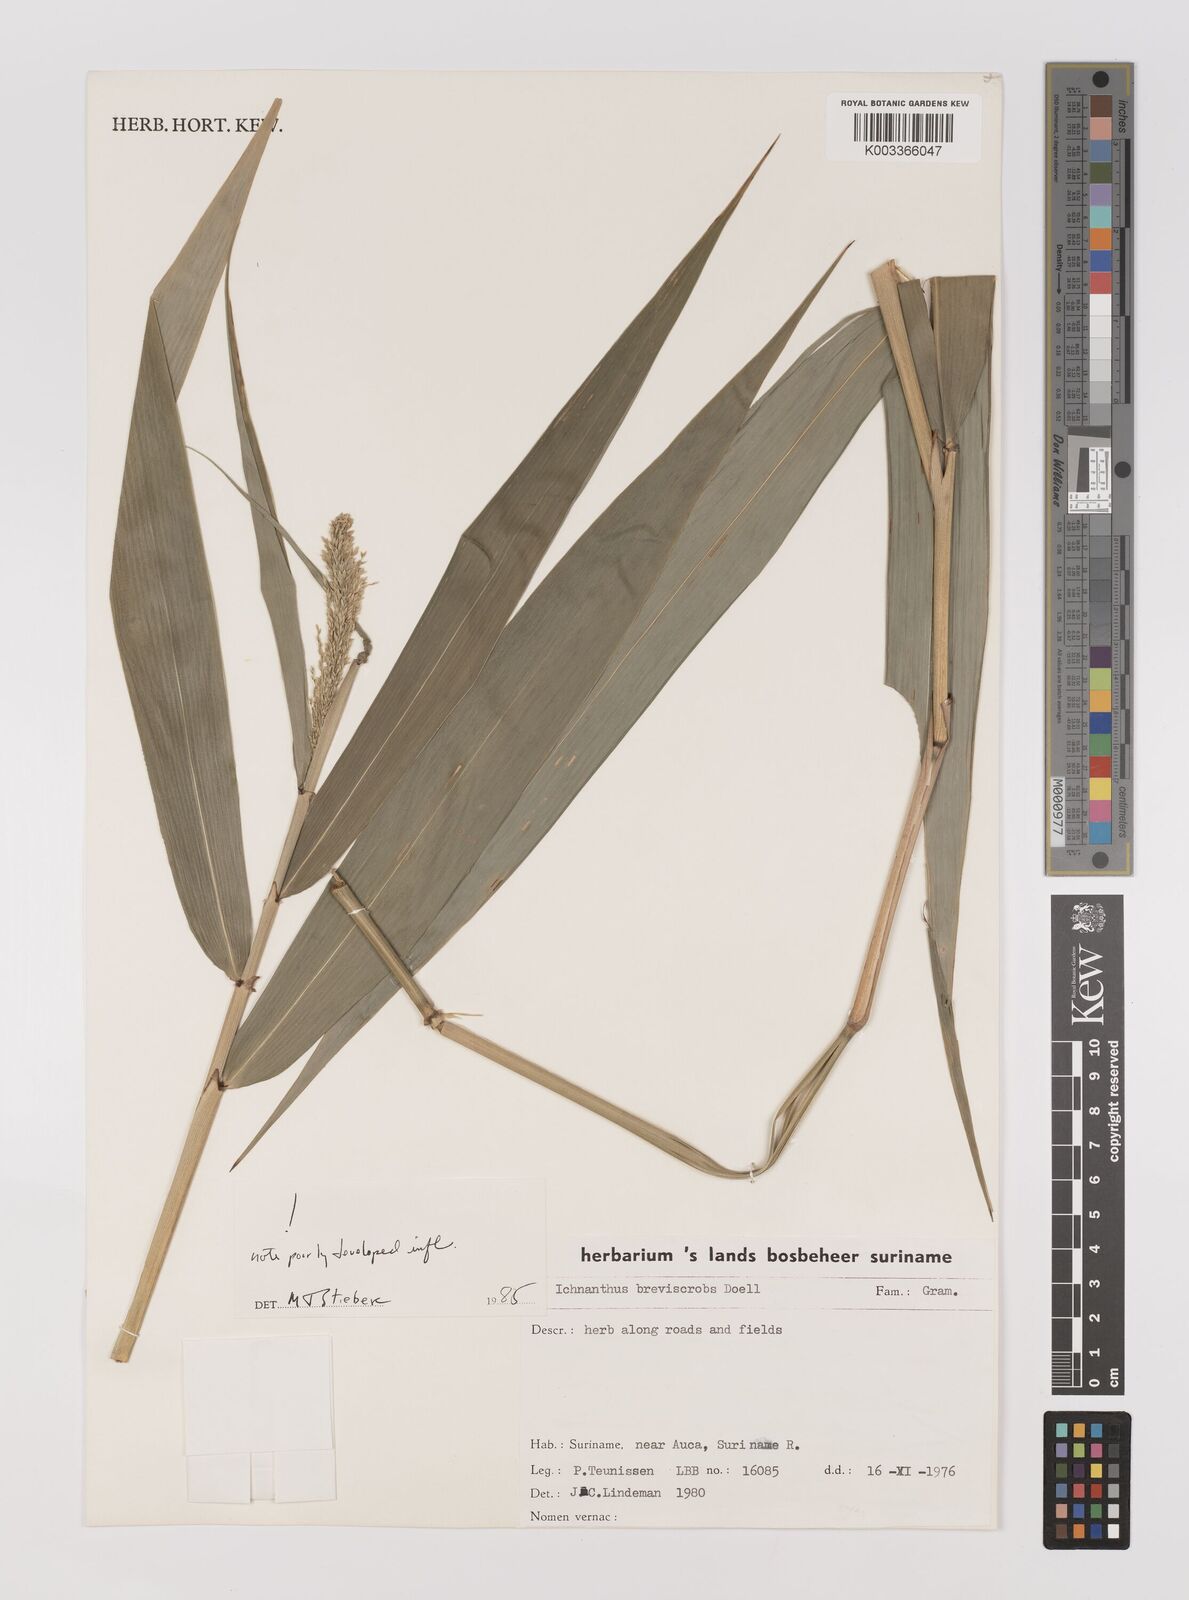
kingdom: Plantae
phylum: Tracheophyta
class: Liliopsida
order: Poales
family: Poaceae
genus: Ichnanthus
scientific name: Ichnanthus breviscrobs
